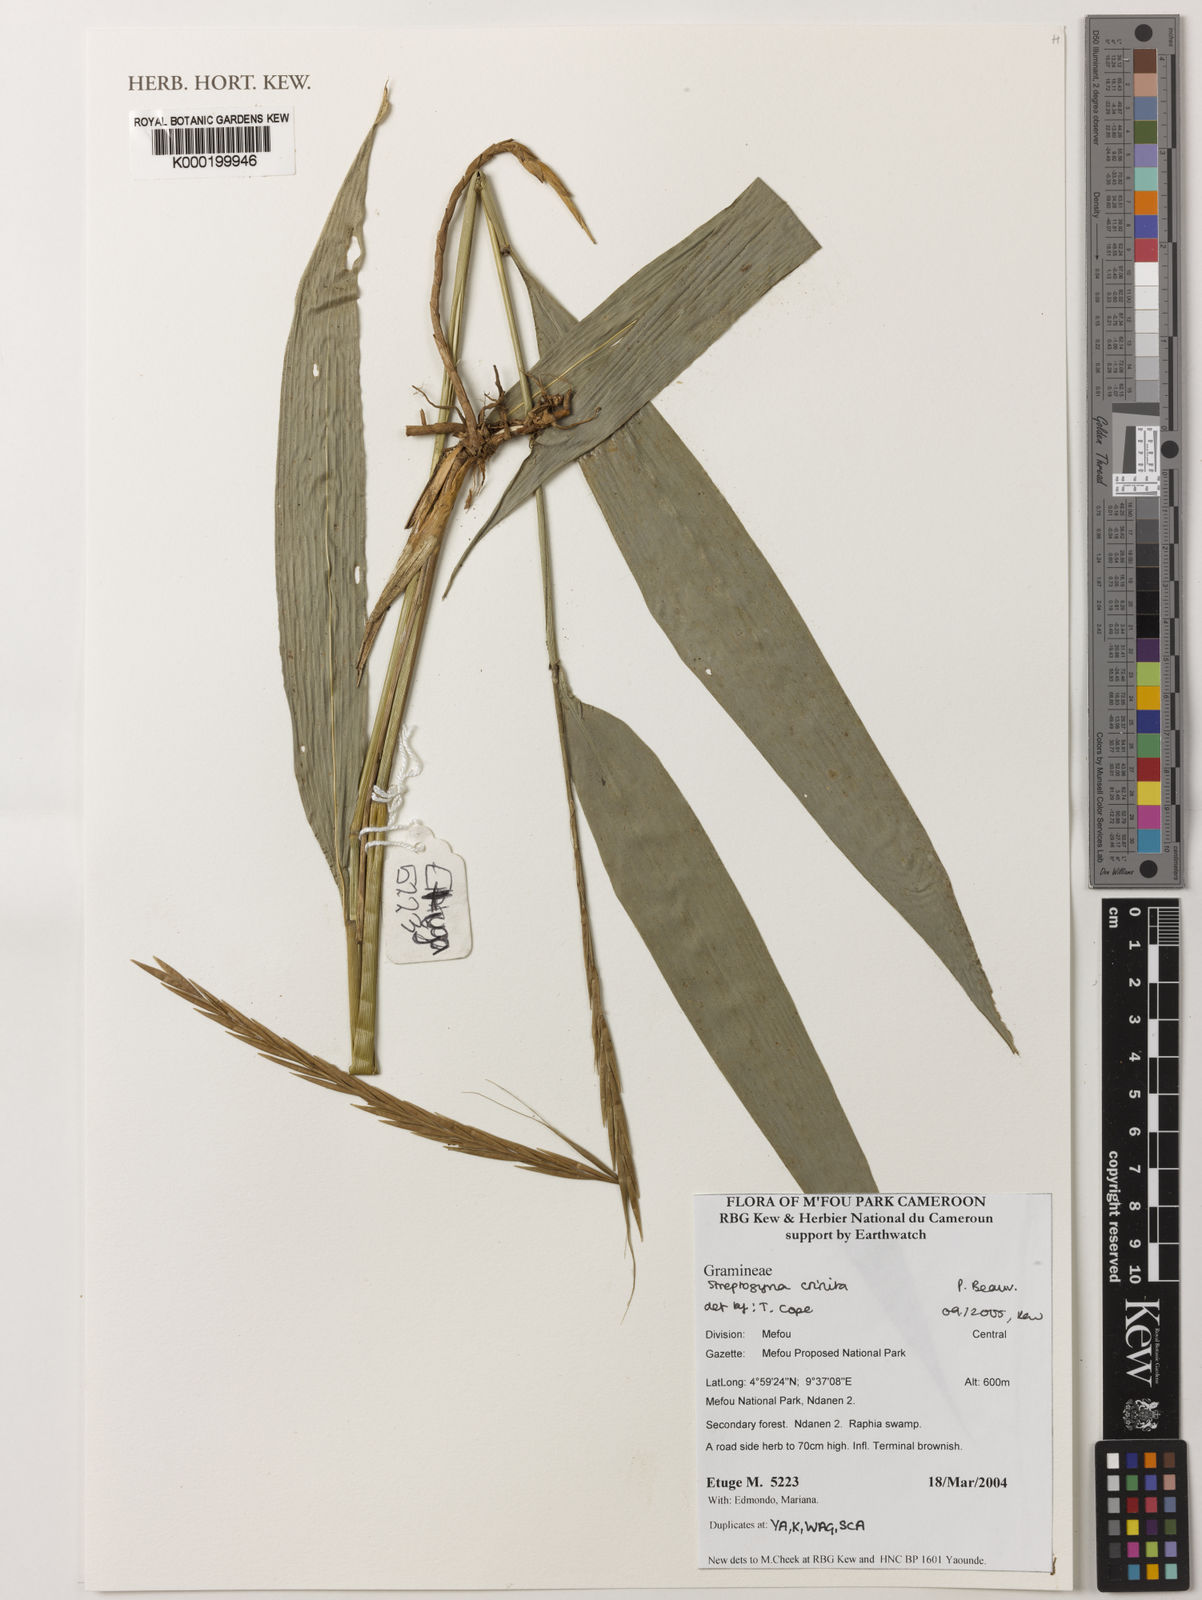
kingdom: Plantae
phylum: Tracheophyta
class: Liliopsida
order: Poales
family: Poaceae
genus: Streptogyna
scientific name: Streptogyna crinita
